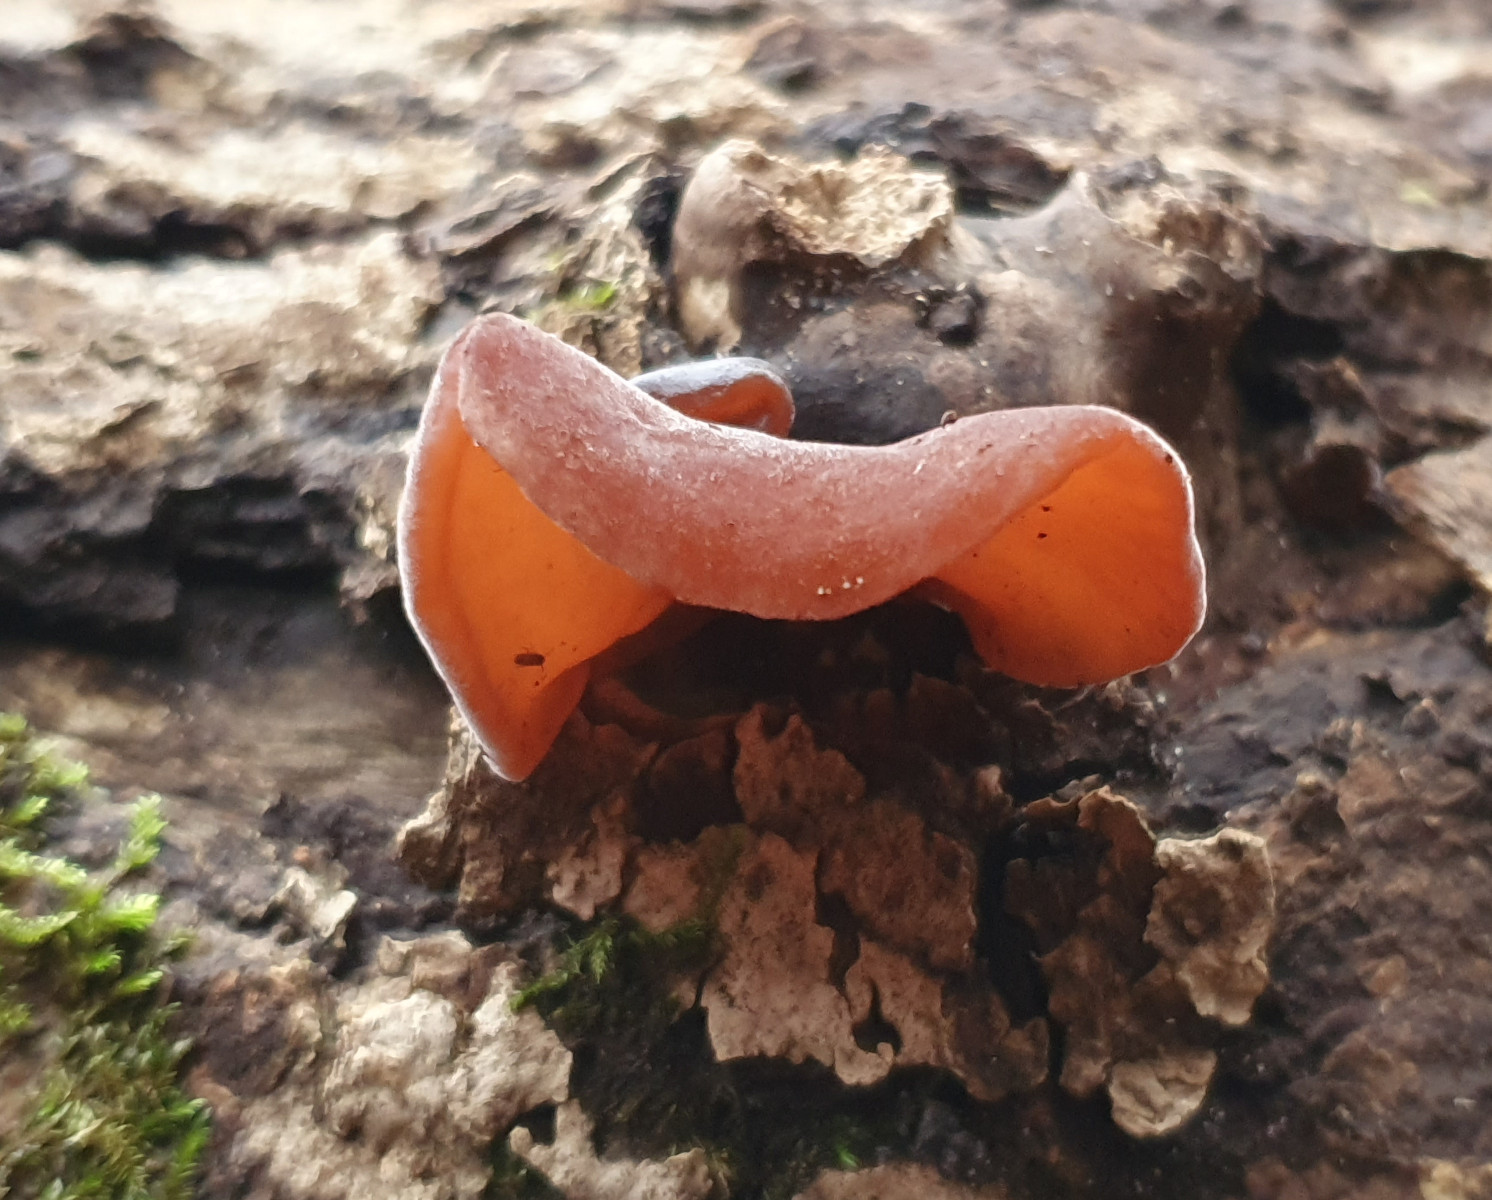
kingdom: Fungi
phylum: Basidiomycota
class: Agaricomycetes
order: Auriculariales
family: Auriculariaceae
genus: Auricularia
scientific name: Auricularia auricula-judae
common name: almindelig judasøre
